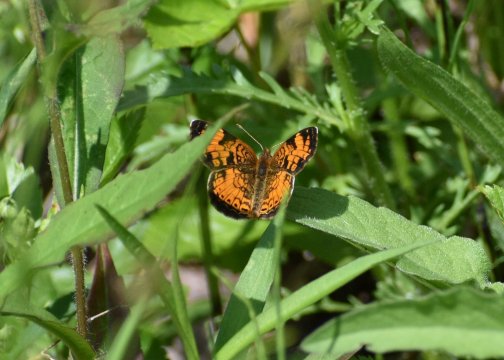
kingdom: Animalia
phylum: Arthropoda
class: Insecta
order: Lepidoptera
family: Nymphalidae
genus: Phyciodes
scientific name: Phyciodes tharos
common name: Northern Crescent
